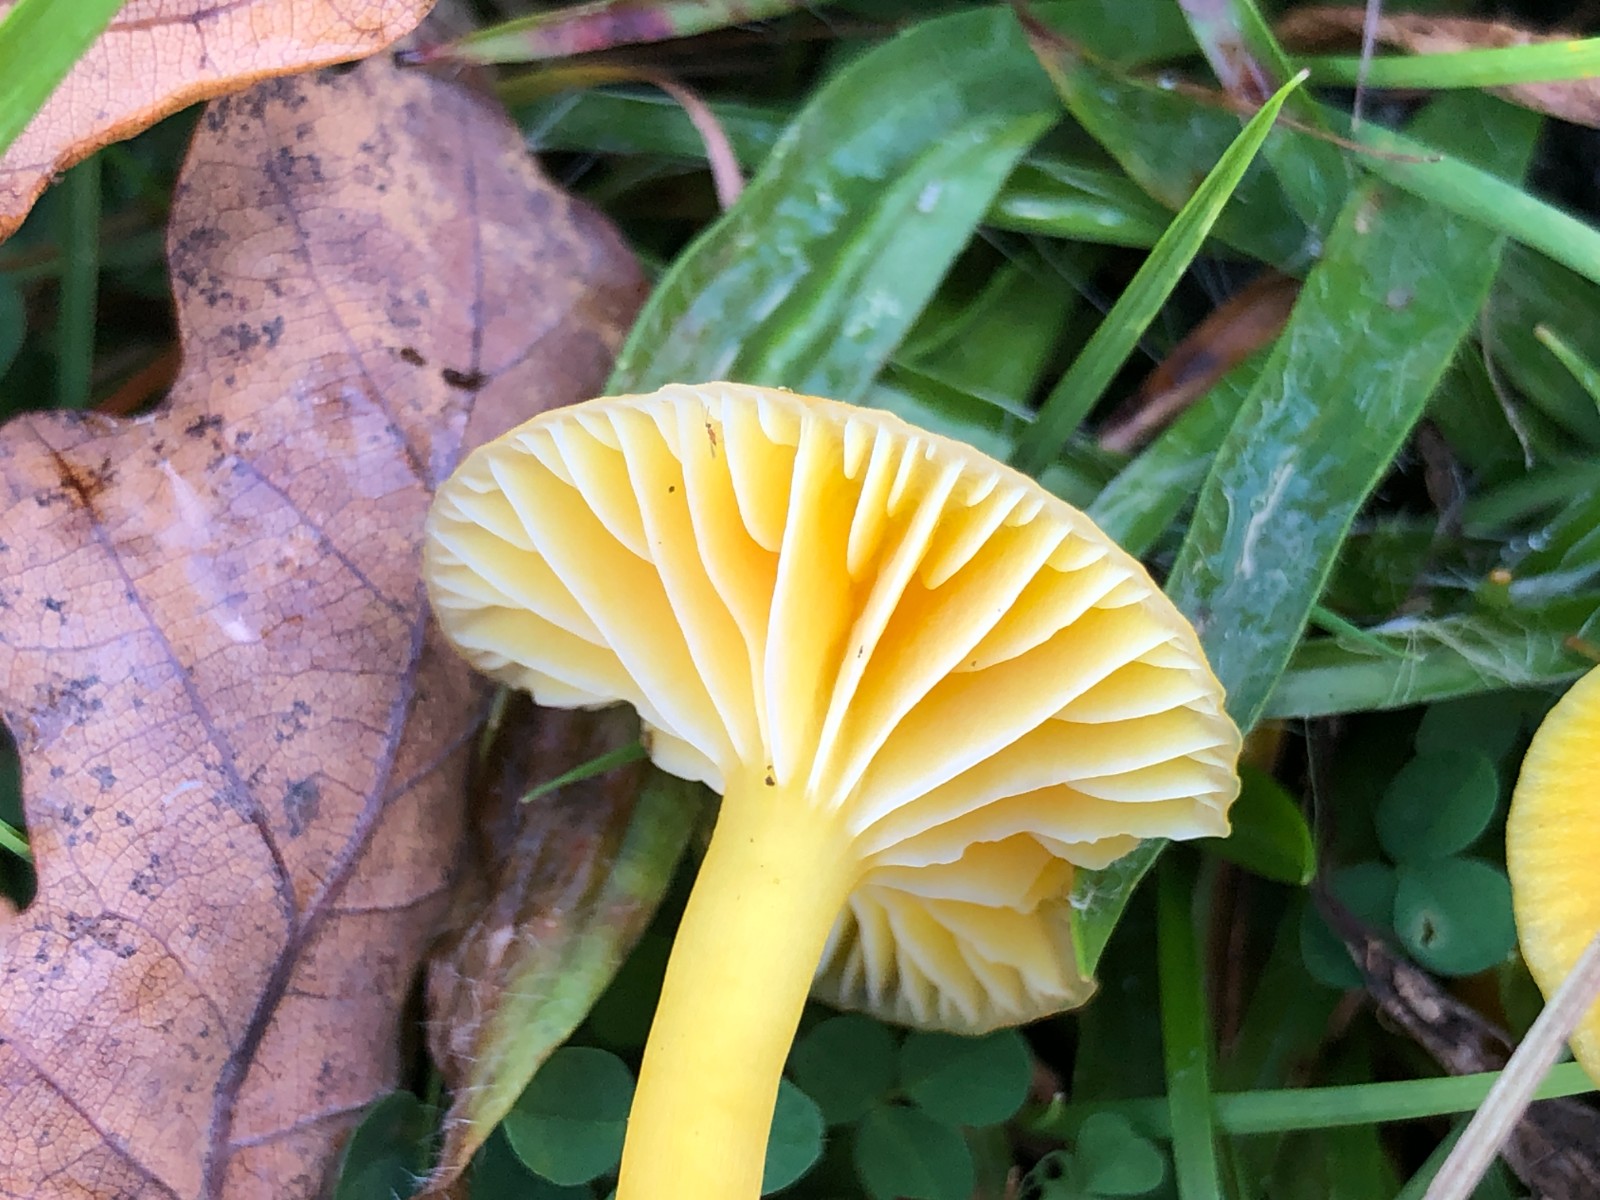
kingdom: Fungi
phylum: Basidiomycota
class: Agaricomycetes
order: Agaricales
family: Hygrophoraceae
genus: Hygrocybe
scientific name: Hygrocybe ceracea
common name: voksgul vokshat
